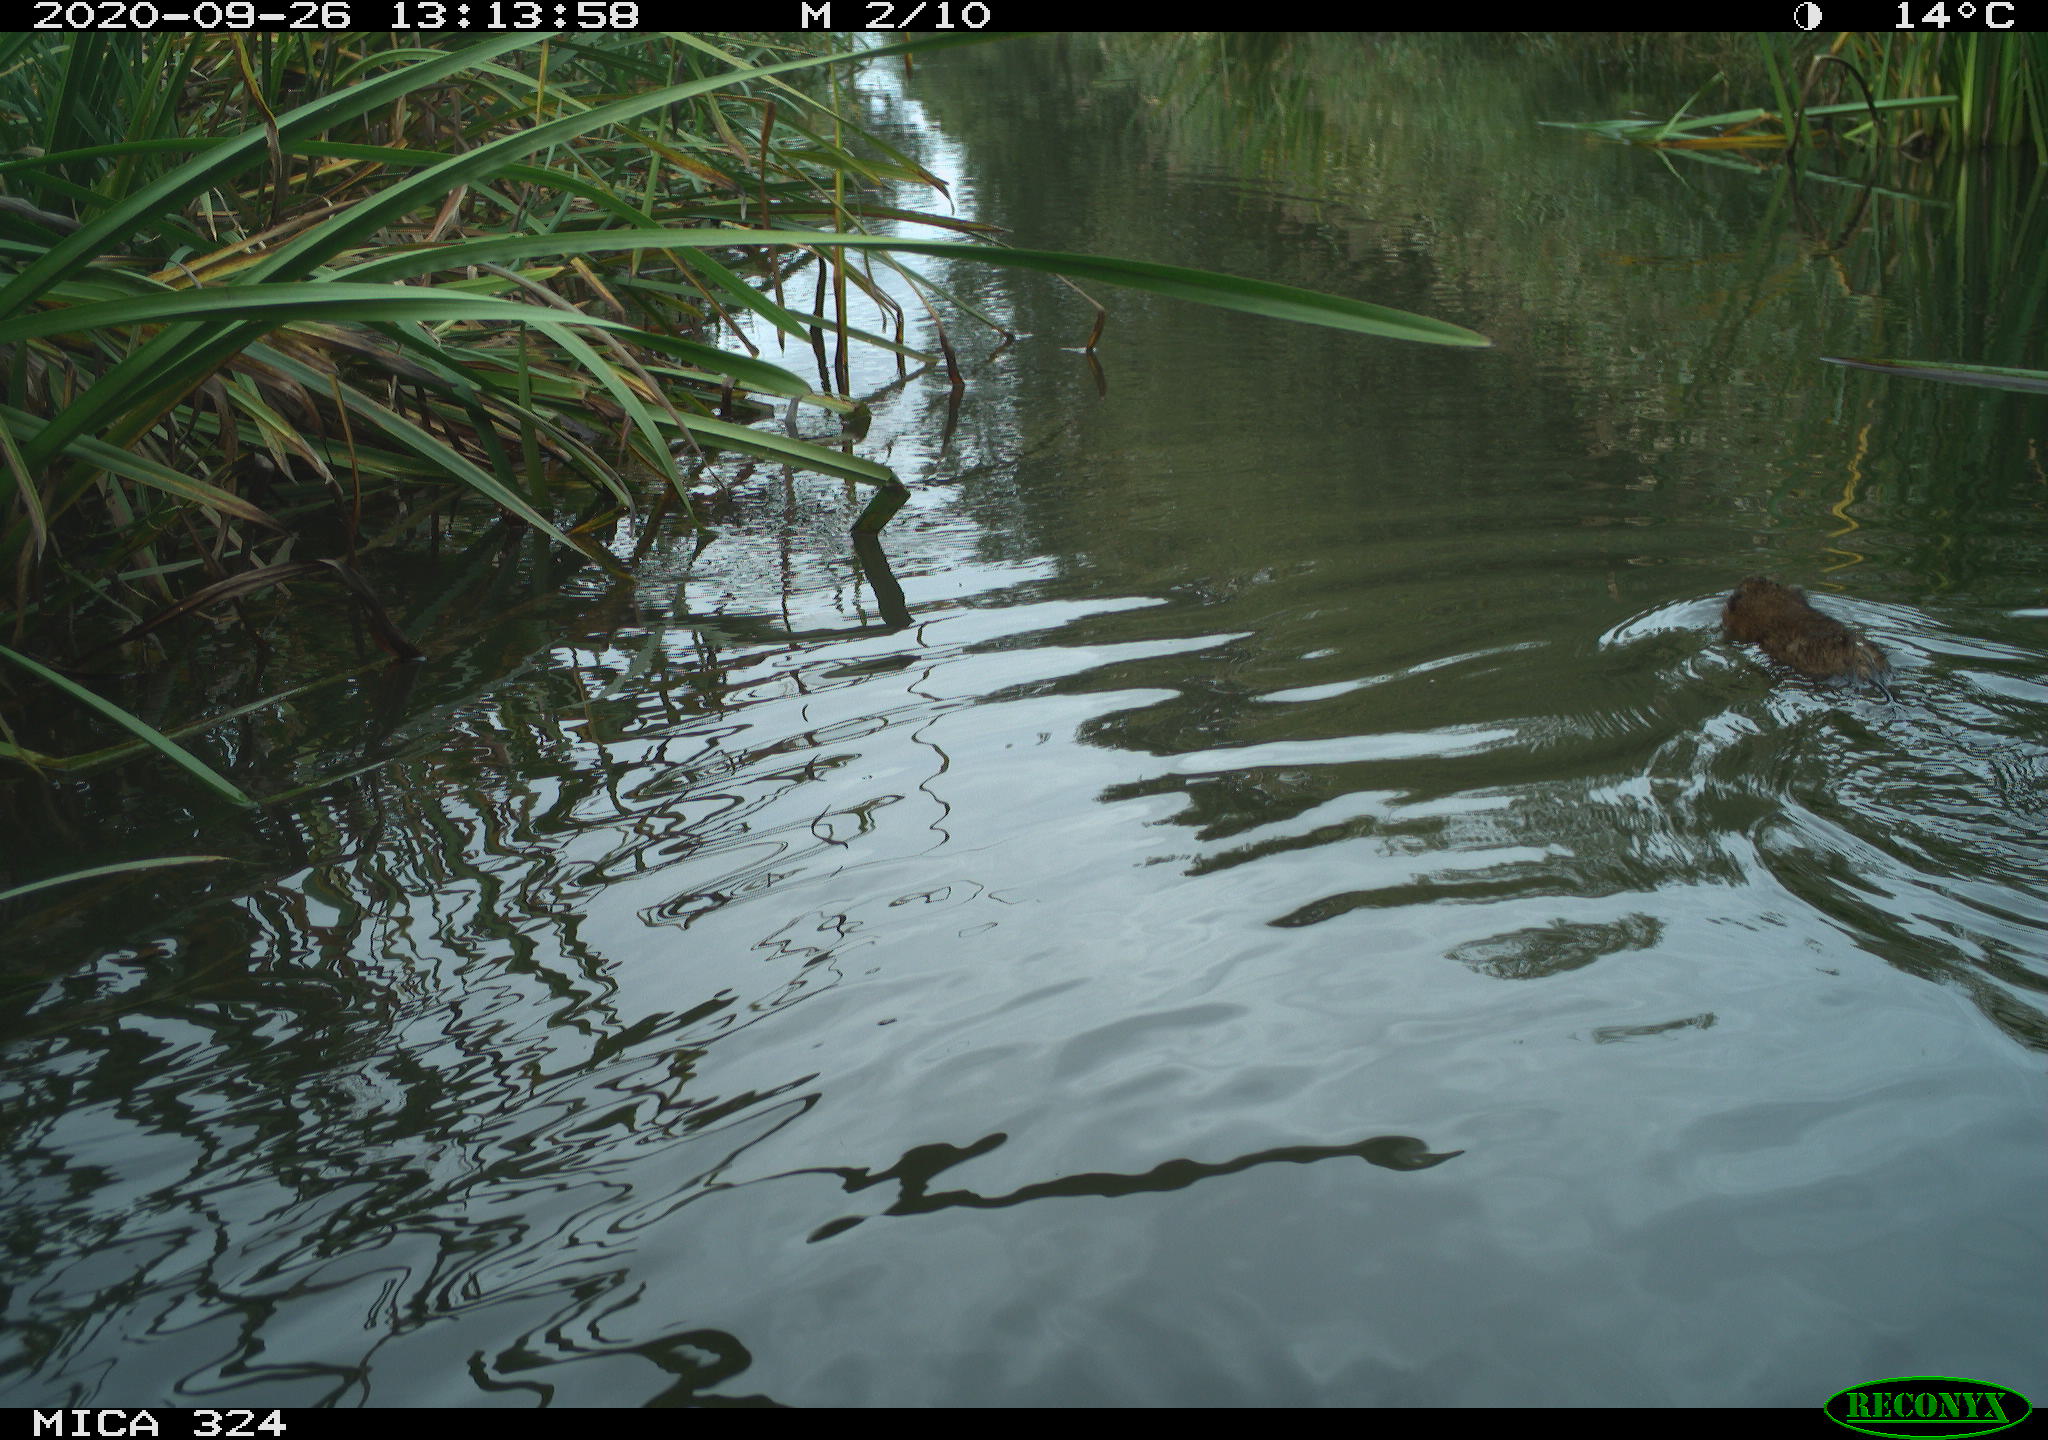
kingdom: Animalia
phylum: Chordata
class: Mammalia
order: Rodentia
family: Cricetidae
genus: Ondatra
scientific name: Ondatra zibethicus
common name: Muskrat
